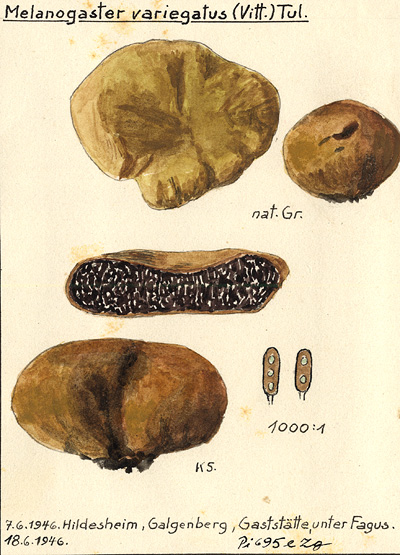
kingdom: Fungi
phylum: Basidiomycota
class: Agaricomycetes
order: Boletales
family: Paxillaceae
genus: Melanogaster
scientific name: Melanogaster broomeanus
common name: Bath truffle
